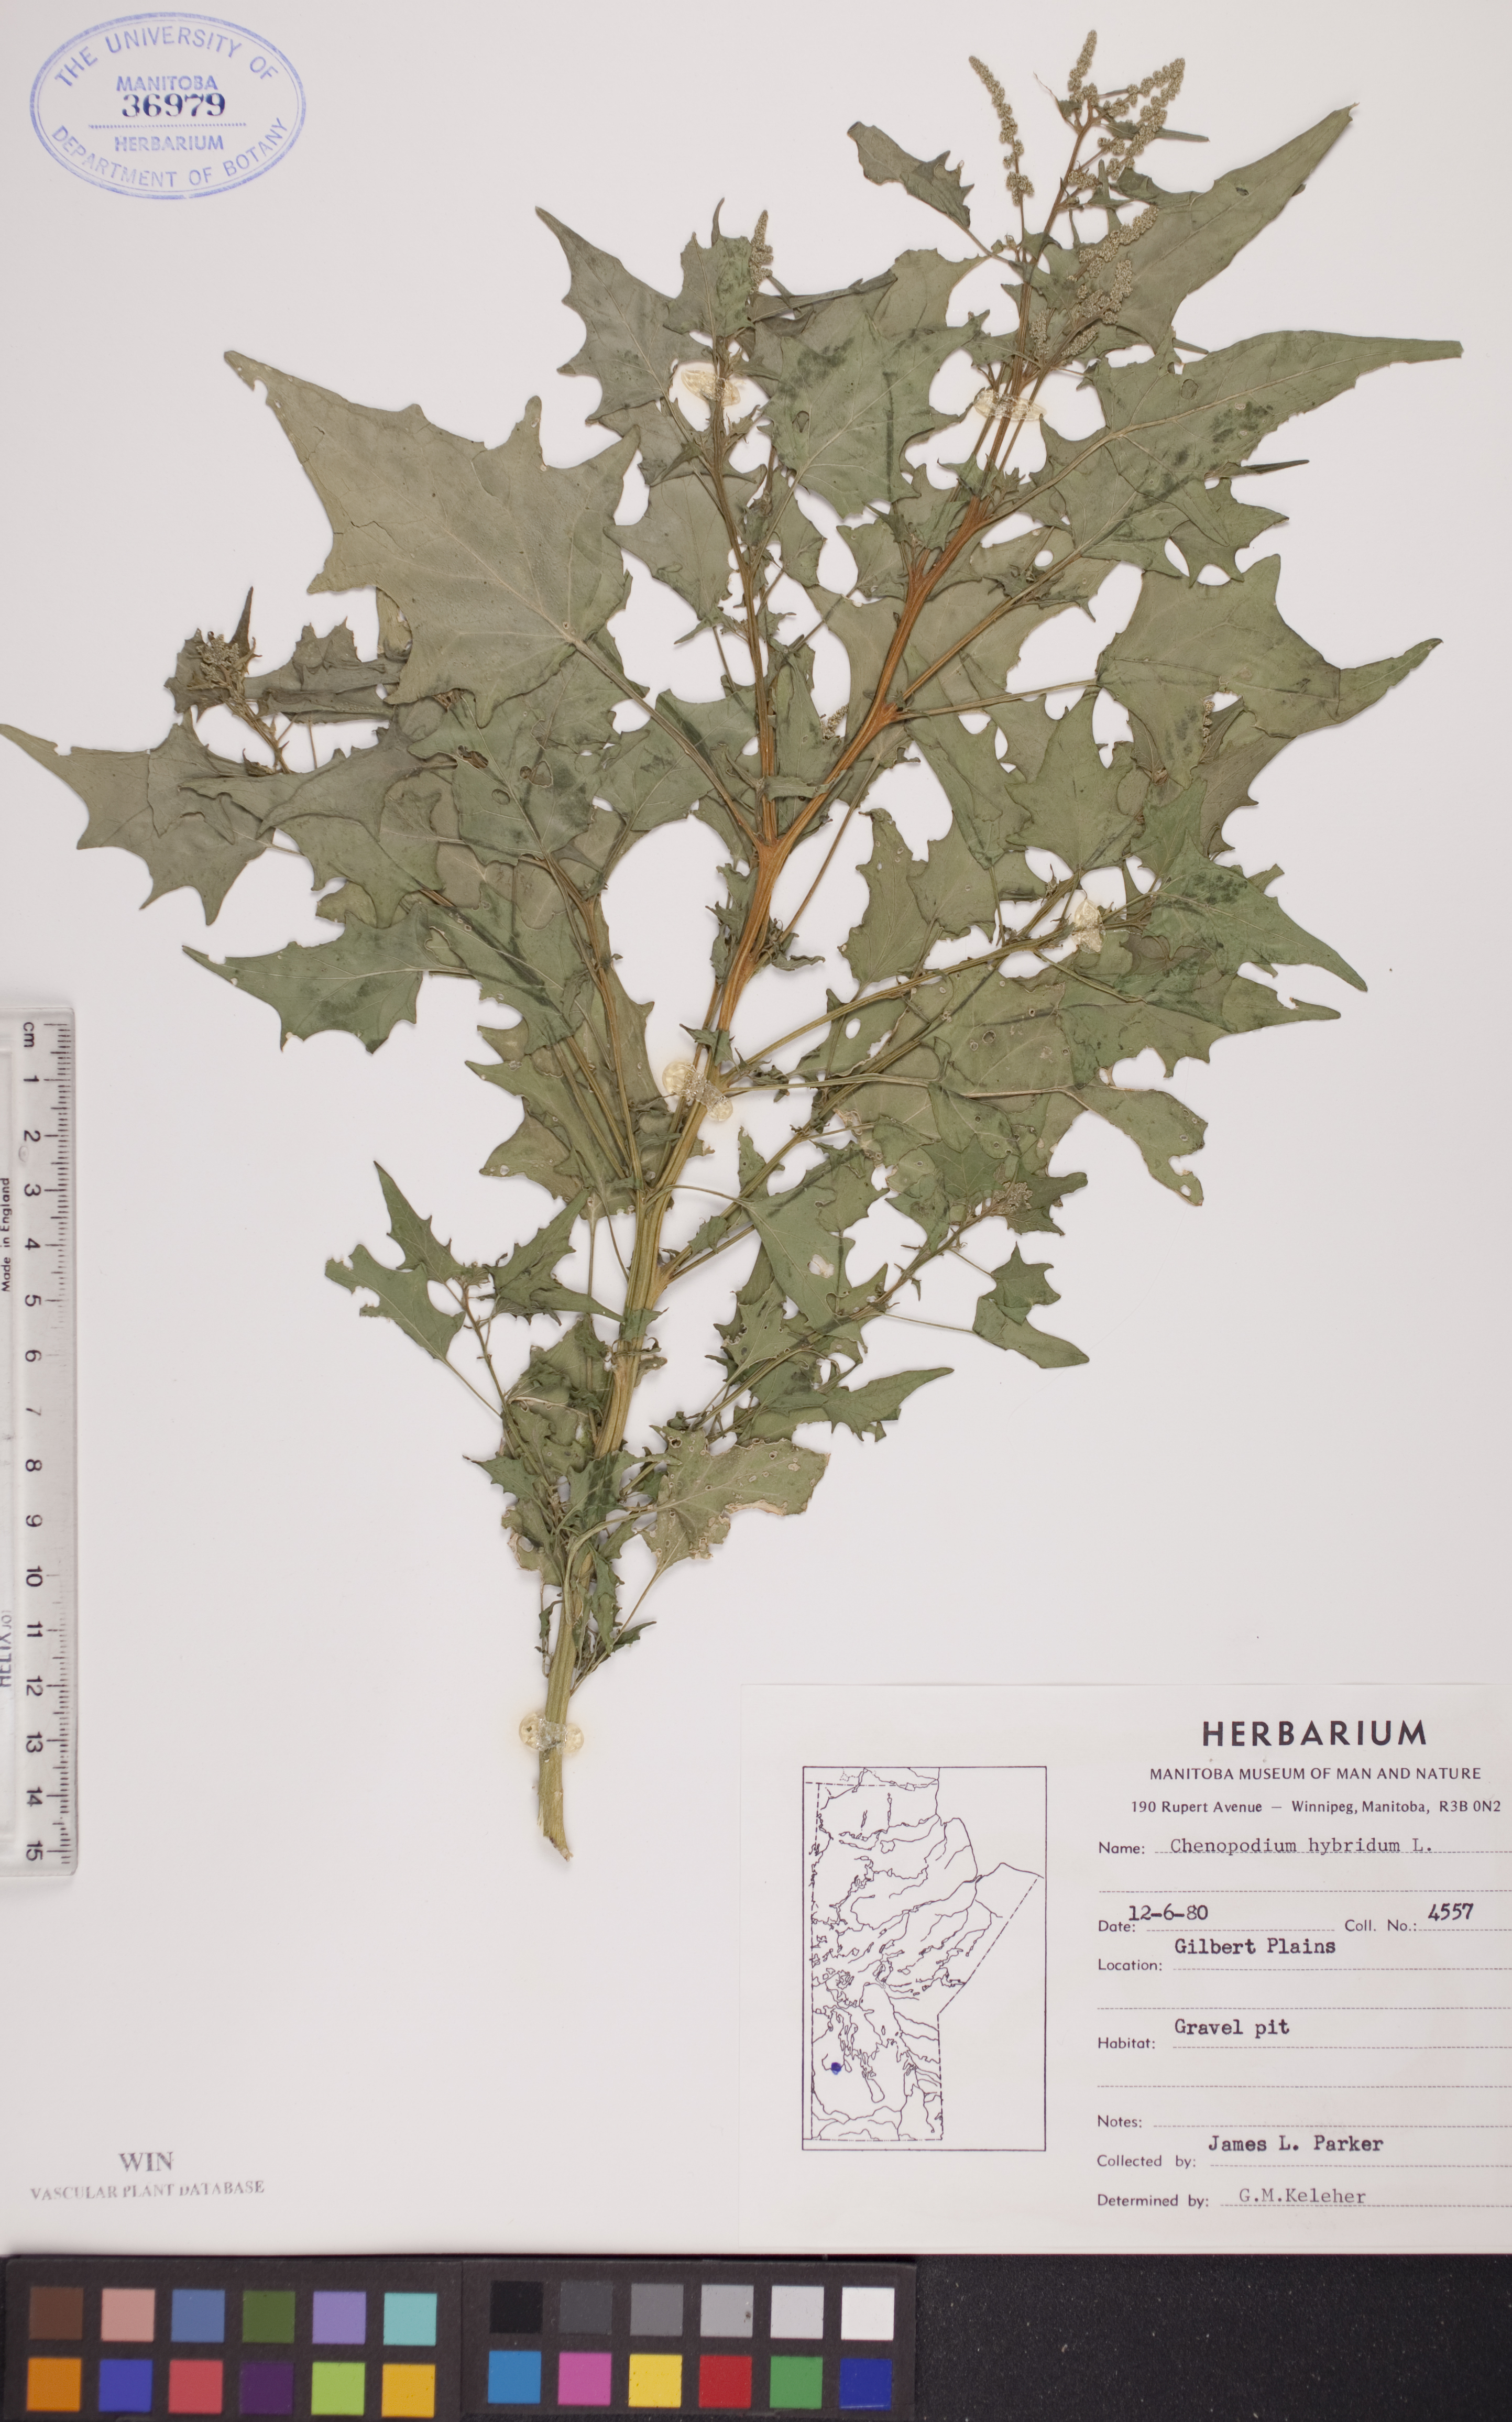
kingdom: Plantae
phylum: Tracheophyta
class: Magnoliopsida
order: Caryophyllales
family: Amaranthaceae
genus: Chenopodiastrum
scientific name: Chenopodiastrum hybridum
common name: Mapleleaf goosefoot
